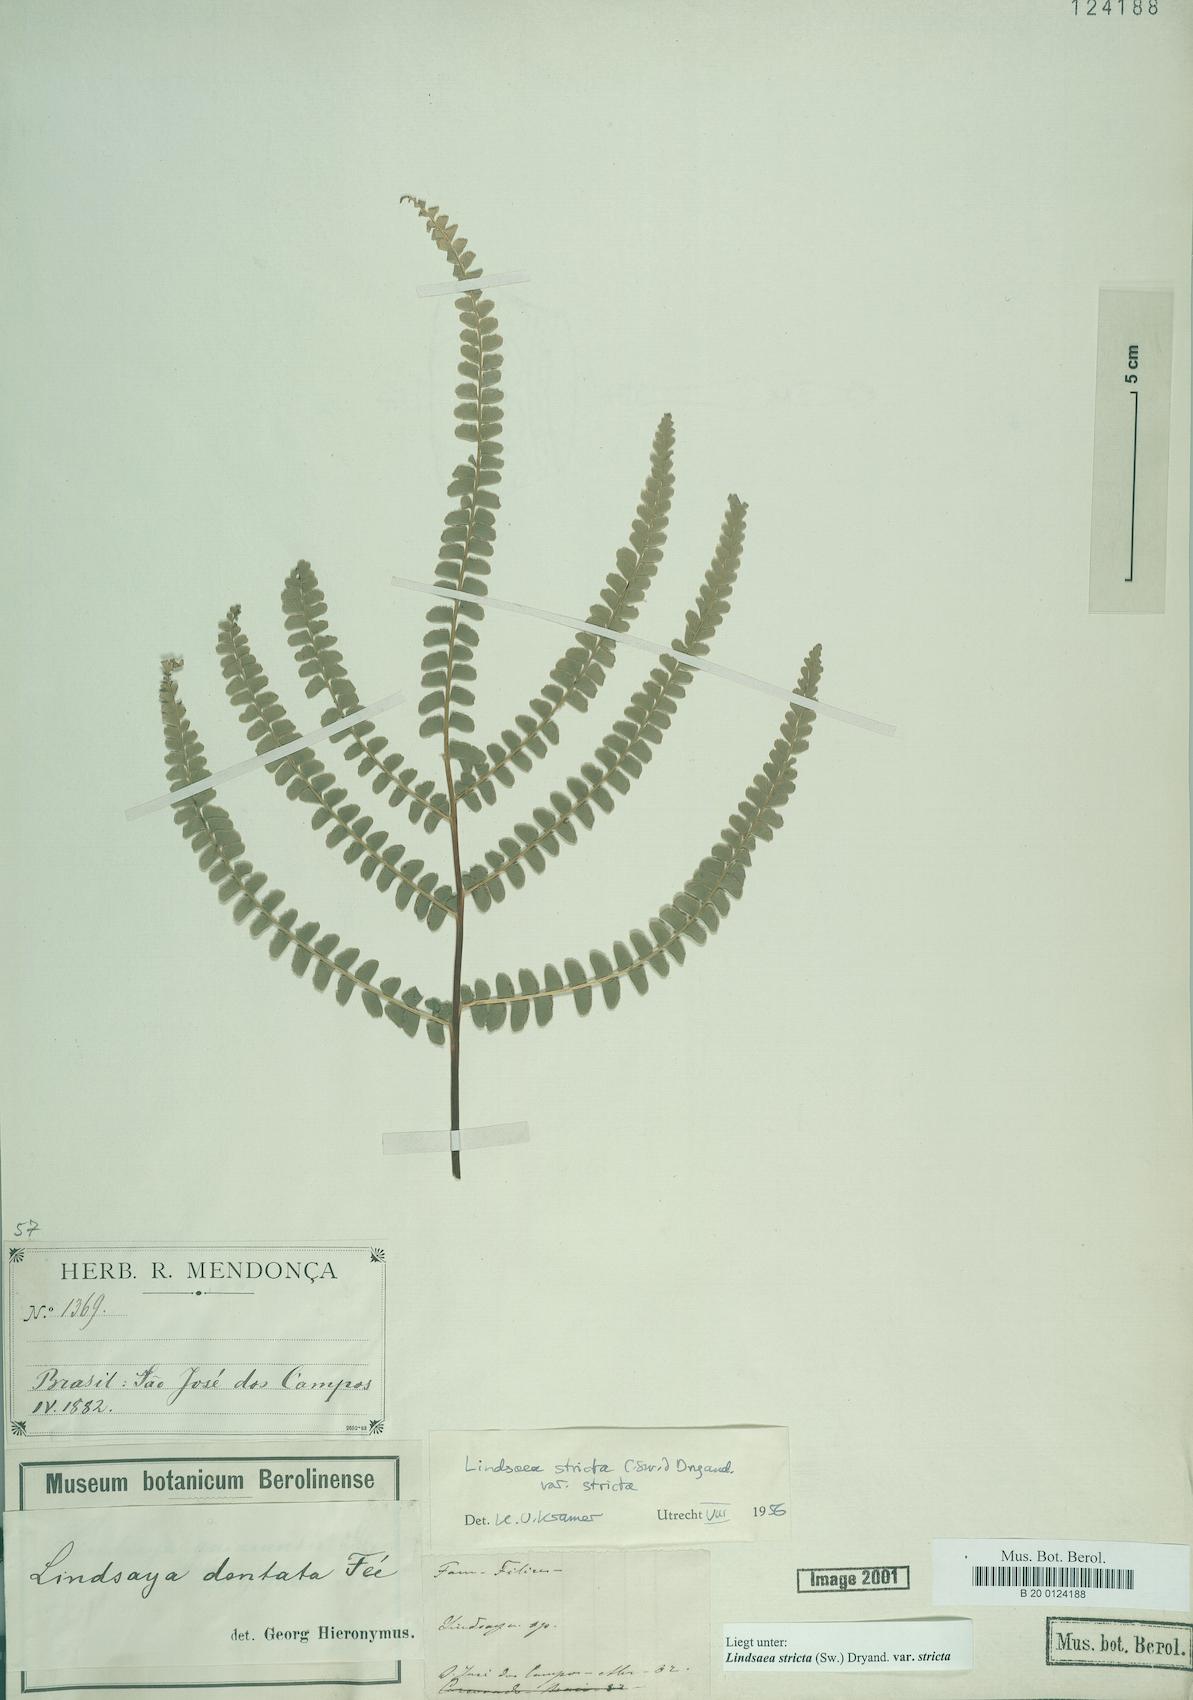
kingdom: Plantae
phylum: Tracheophyta
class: Polypodiopsida
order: Polypodiales
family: Lindsaeaceae
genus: Lindsaea
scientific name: Lindsaea stricta
